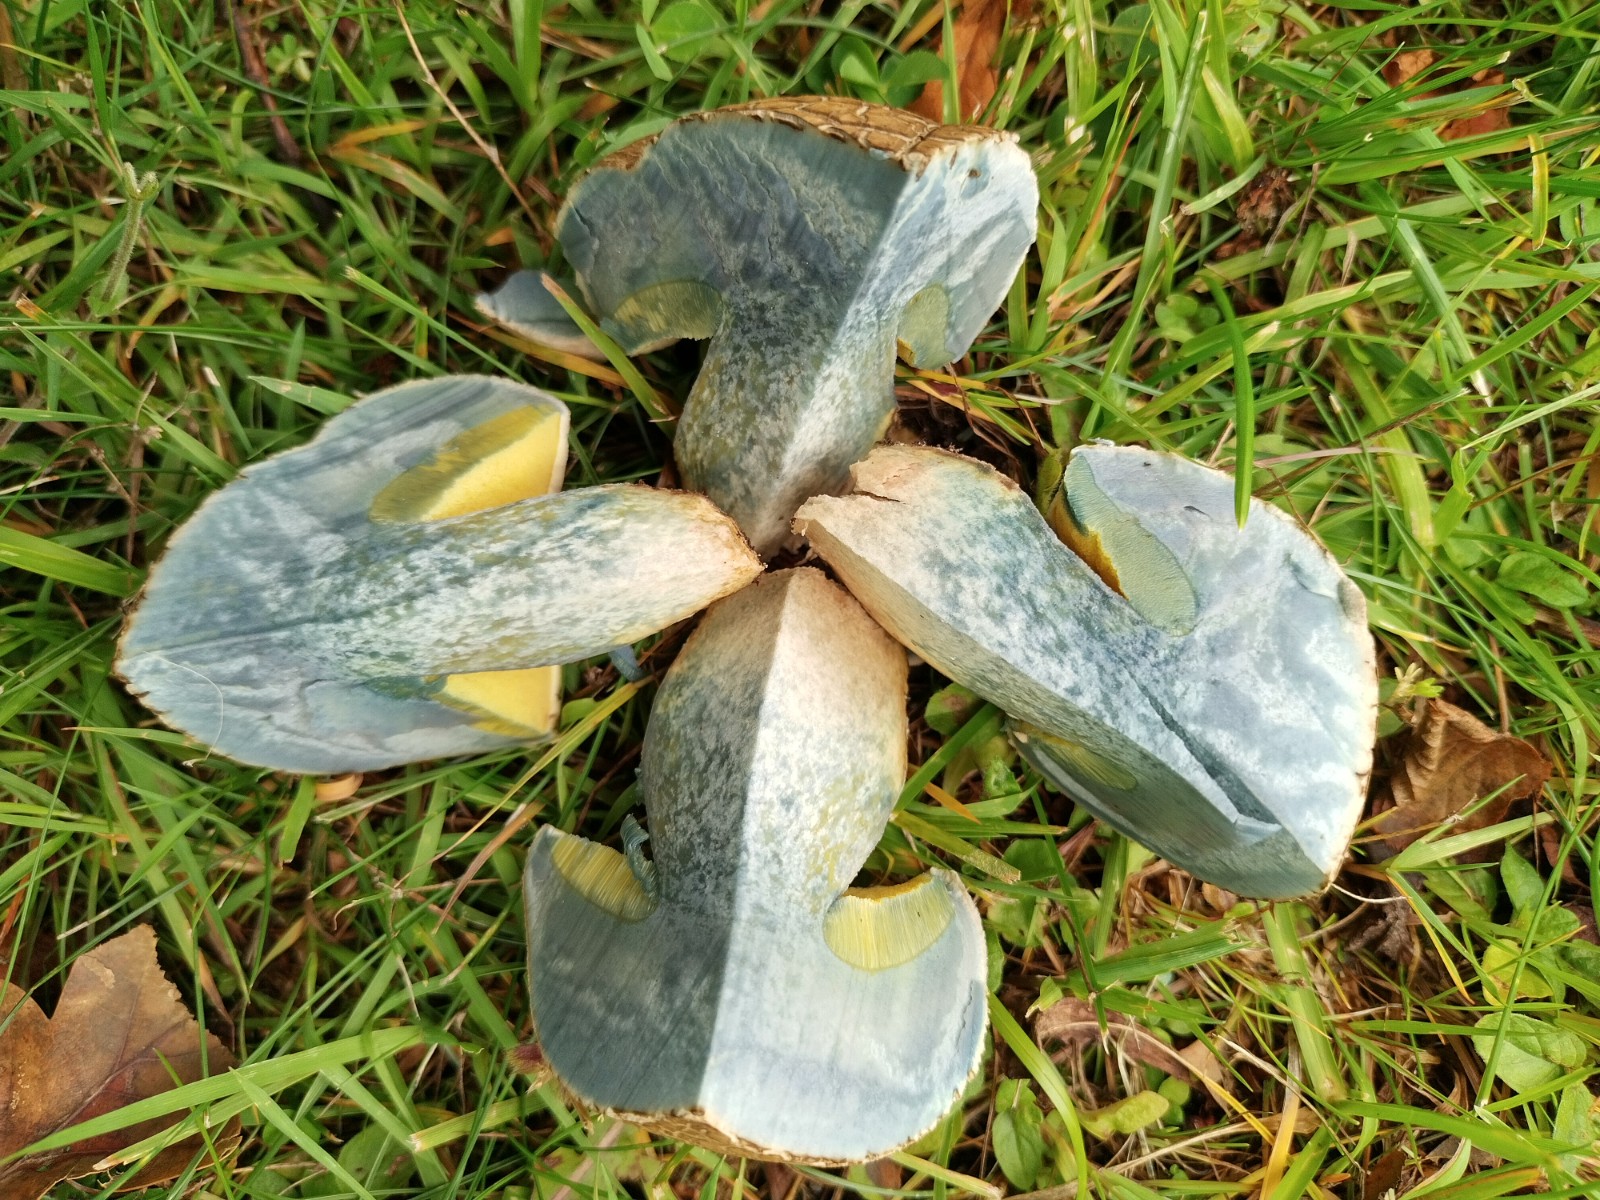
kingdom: Fungi
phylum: Basidiomycota
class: Agaricomycetes
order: Boletales
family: Boletaceae
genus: Caloboletus
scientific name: Caloboletus radicans
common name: rod-rørhat
